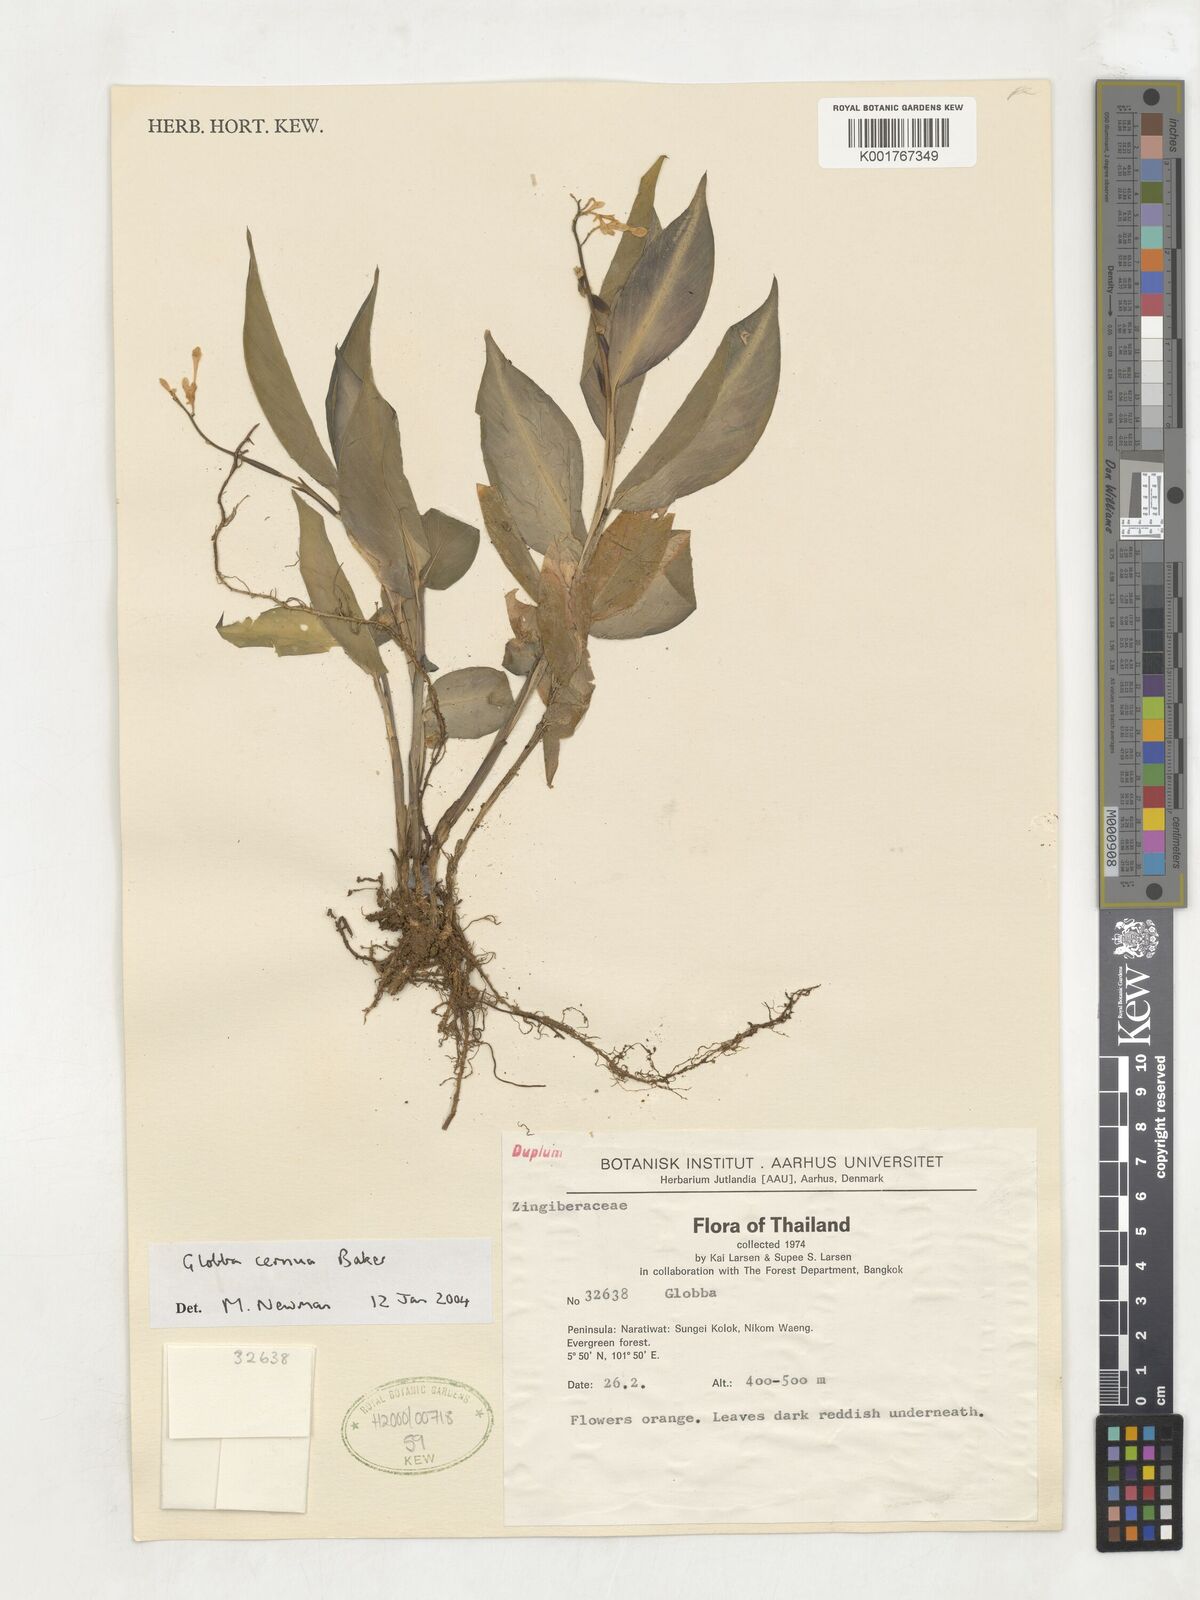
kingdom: Plantae
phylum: Tracheophyta
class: Liliopsida
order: Zingiberales
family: Zingiberaceae
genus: Globba
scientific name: Globba cernua
